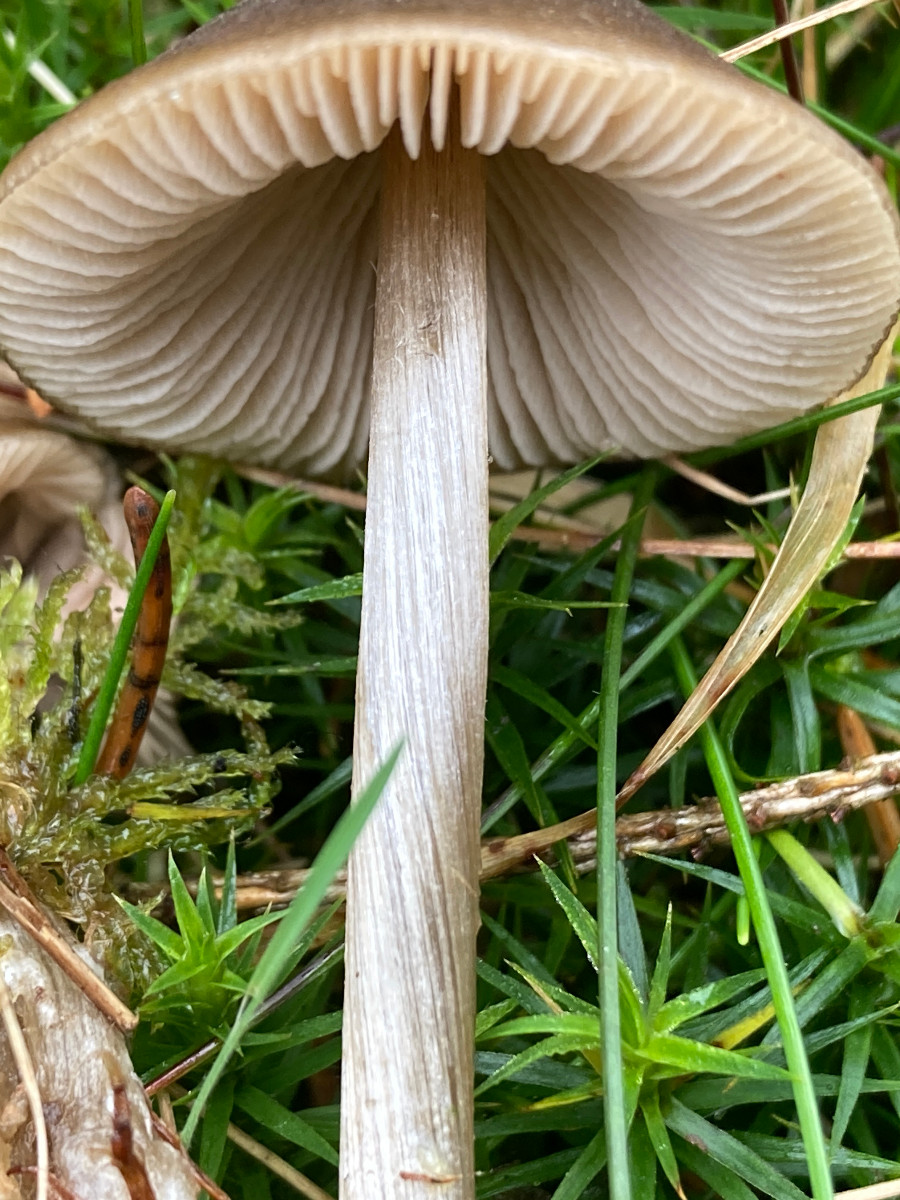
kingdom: Fungi
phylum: Basidiomycota
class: Agaricomycetes
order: Agaricales
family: Entolomataceae
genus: Entoloma
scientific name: Entoloma
